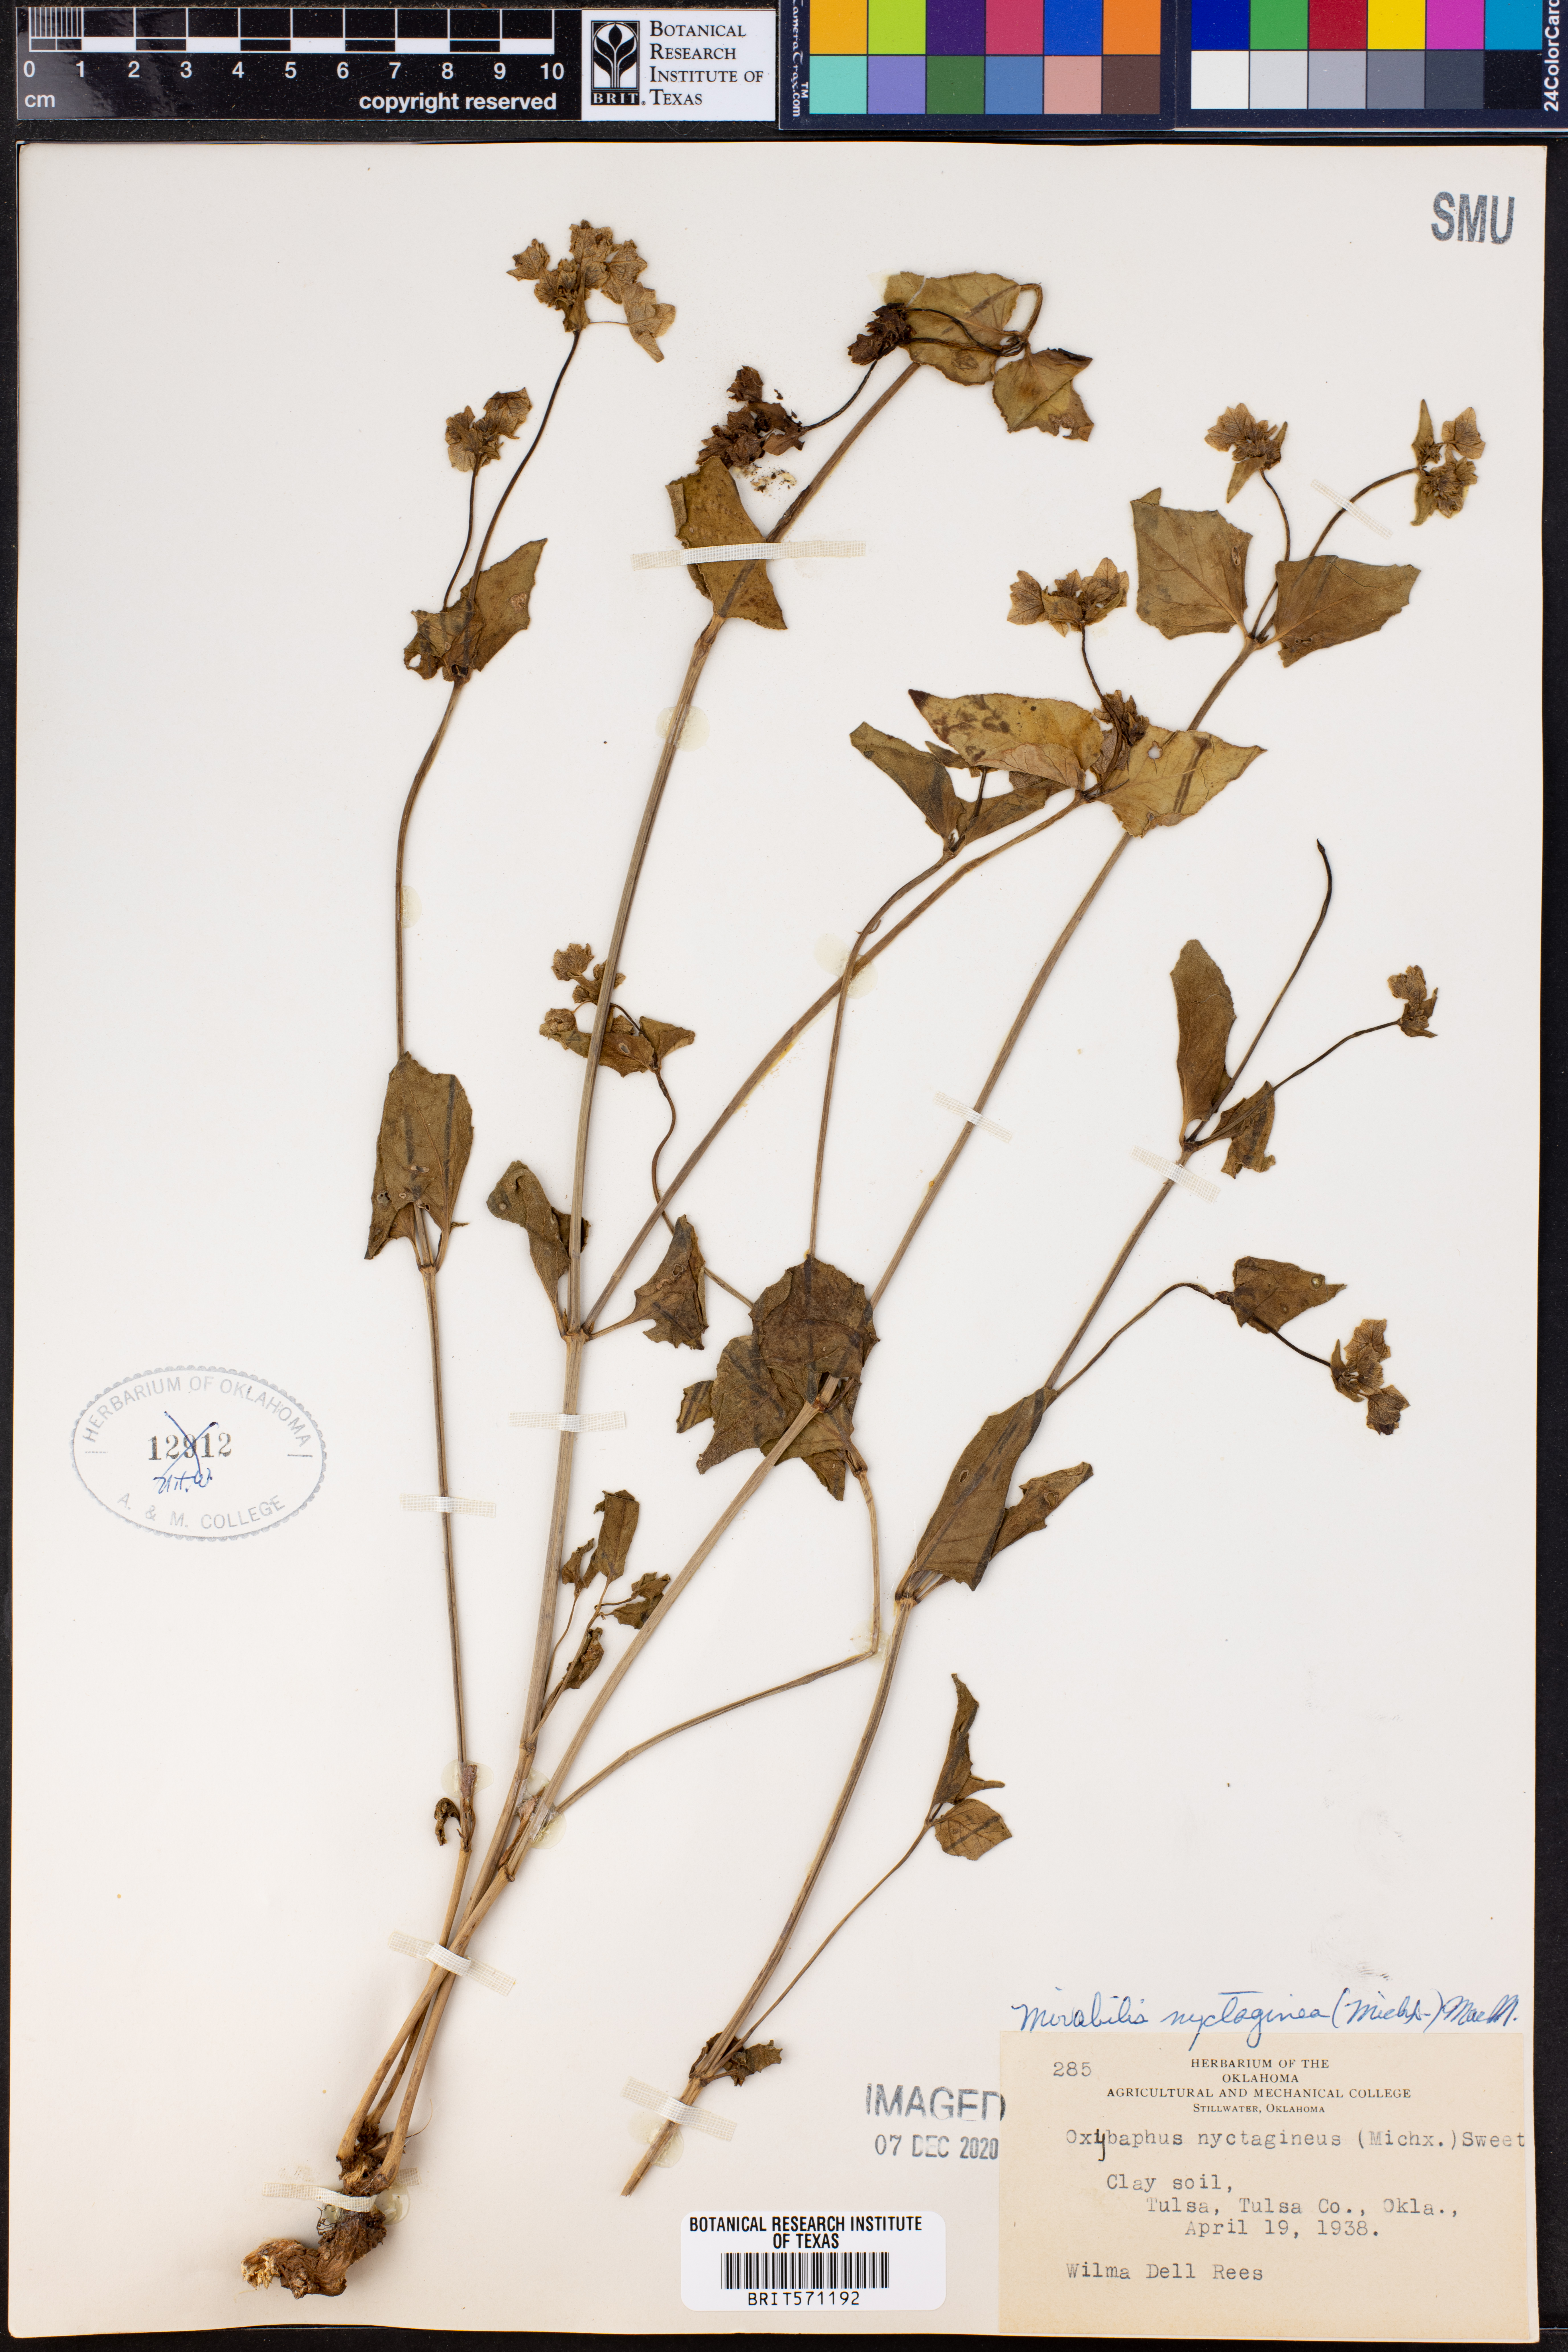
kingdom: Plantae
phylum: Tracheophyta
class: Magnoliopsida
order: Caryophyllales
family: Nyctaginaceae
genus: Mirabilis
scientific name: Mirabilis nyctaginea
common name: Umbrella wort
